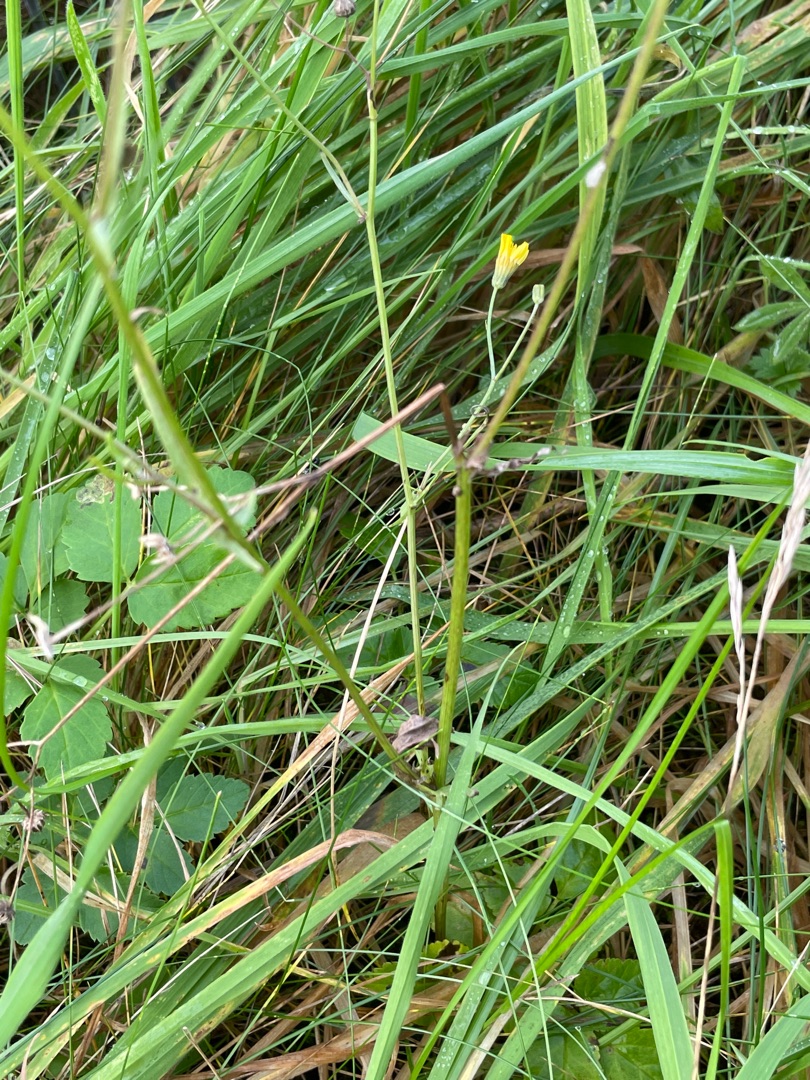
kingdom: Plantae
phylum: Tracheophyta
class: Magnoliopsida
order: Asterales
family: Asteraceae
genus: Crepis
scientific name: Crepis capillaris
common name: Grøn høgeskæg
